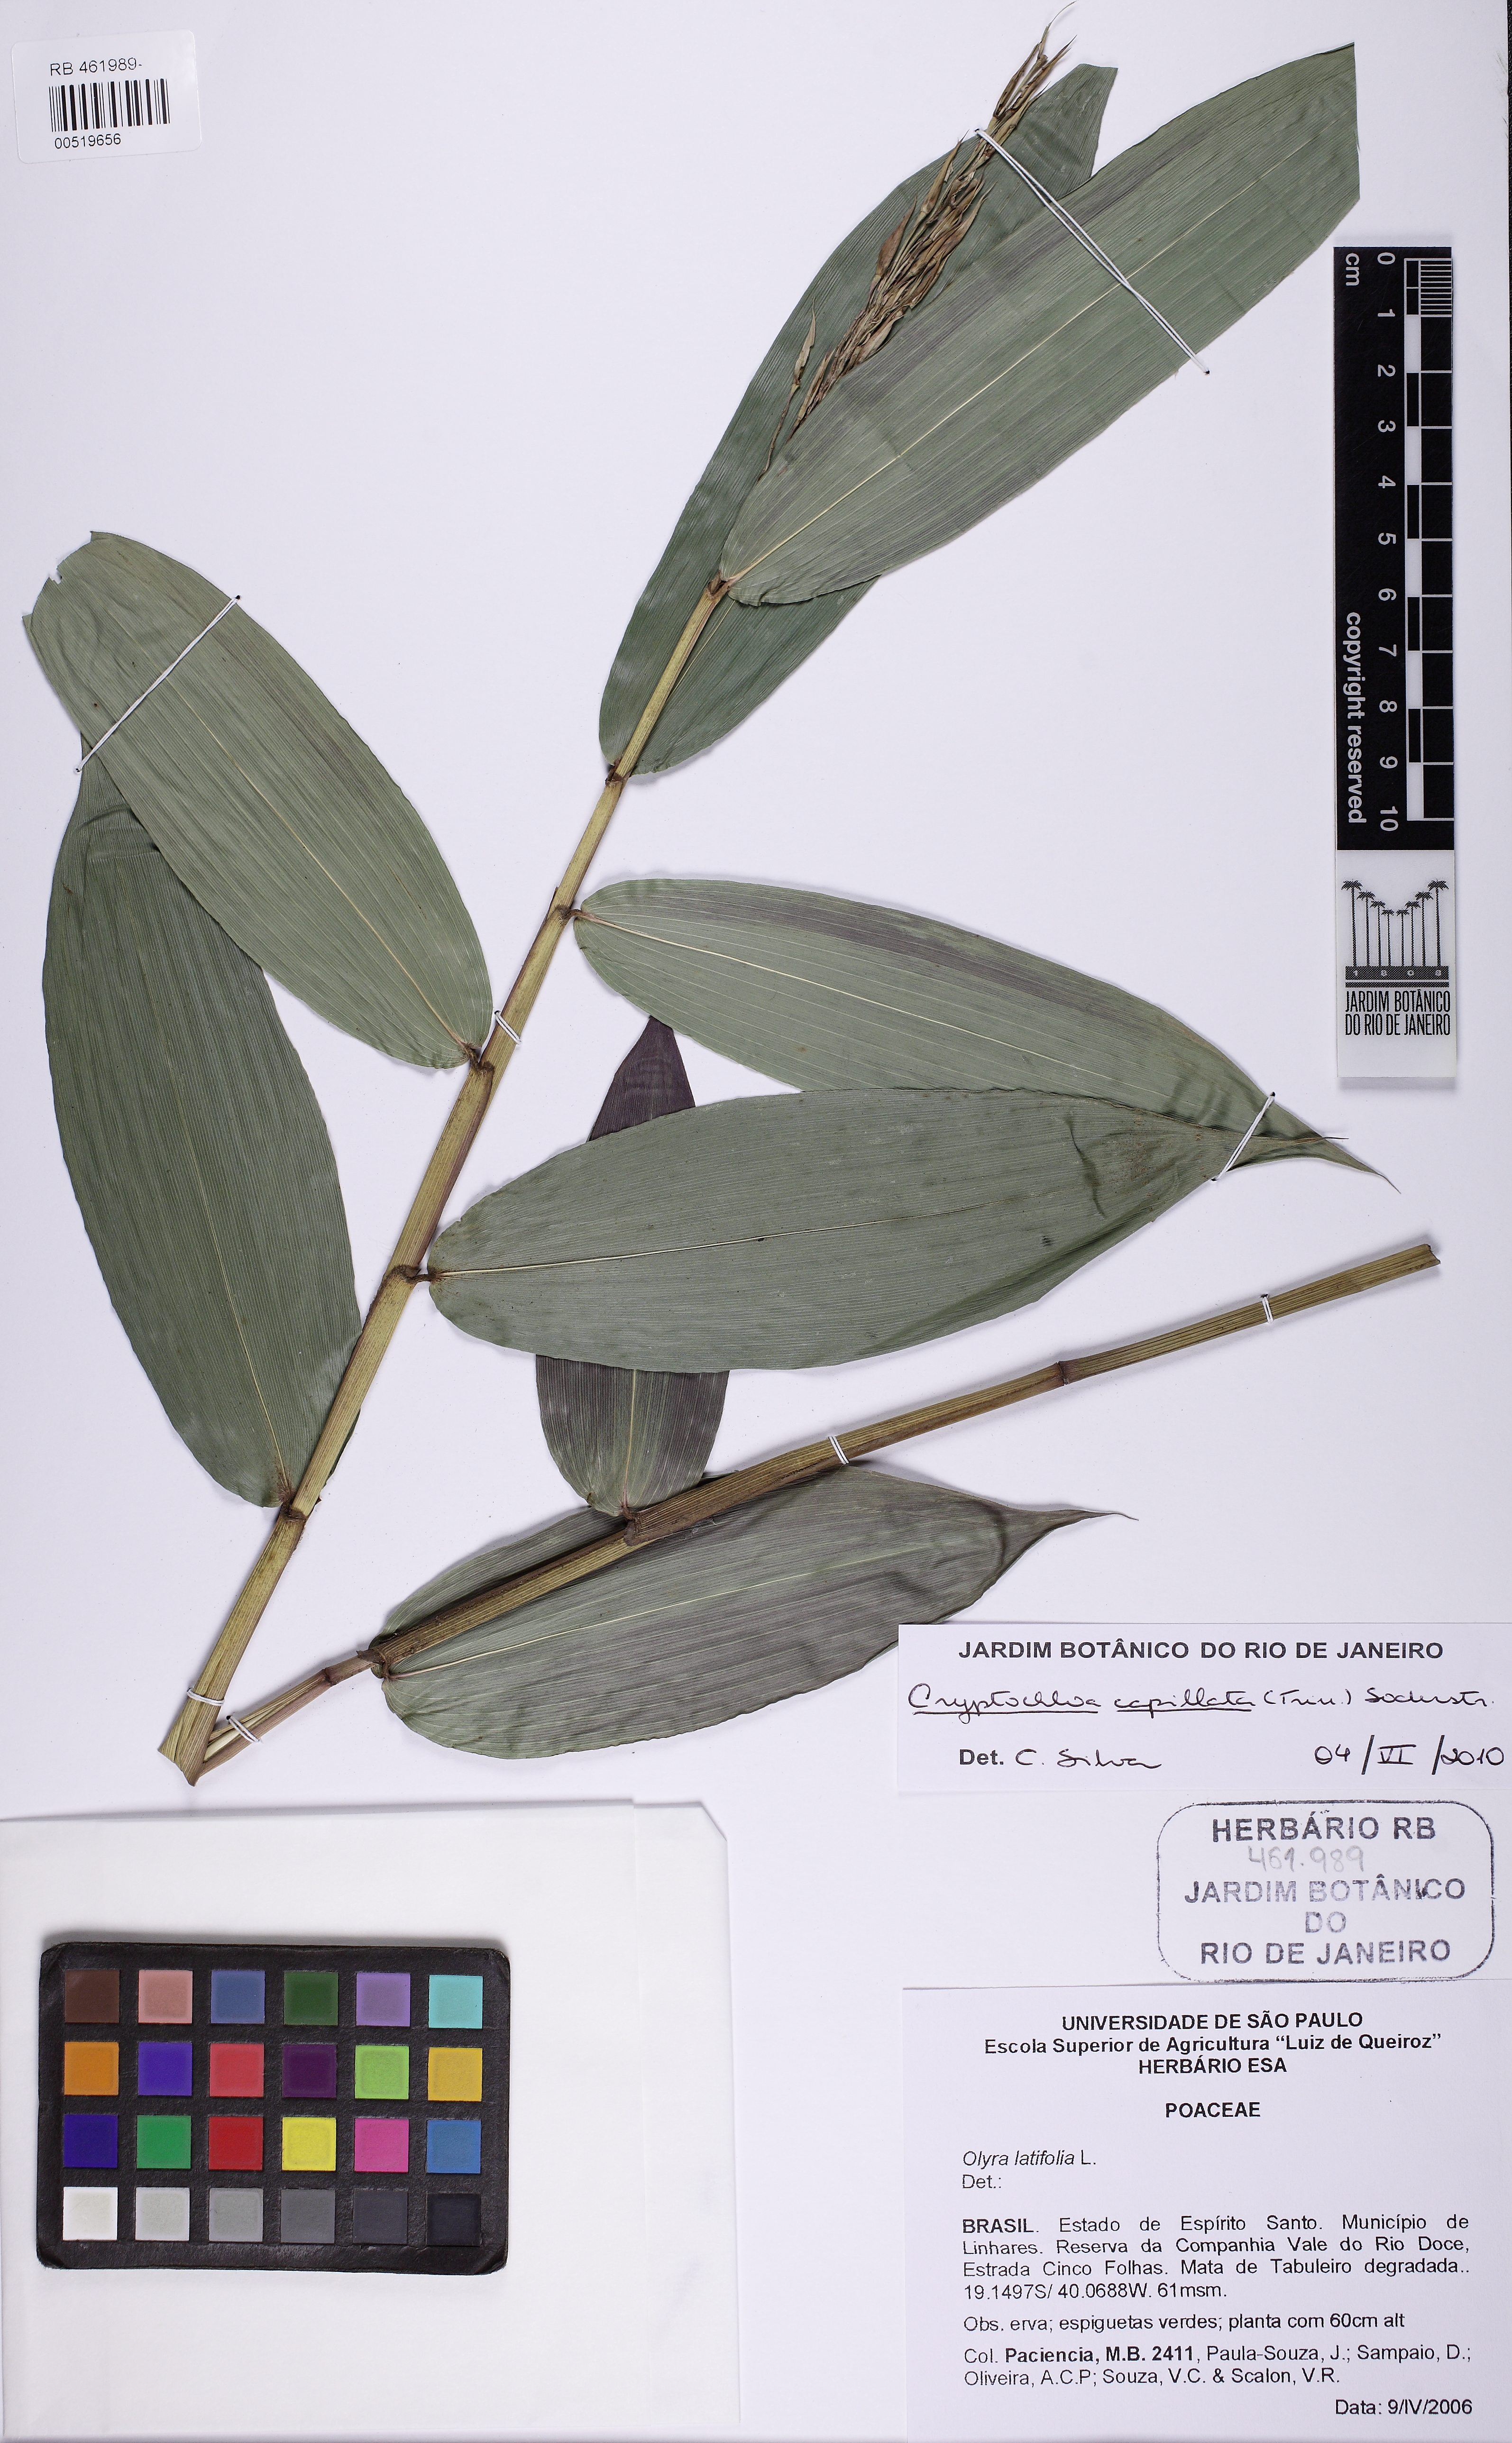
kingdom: Plantae
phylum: Tracheophyta
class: Liliopsida
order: Poales
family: Poaceae
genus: Olyra
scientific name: Olyra latifolia
